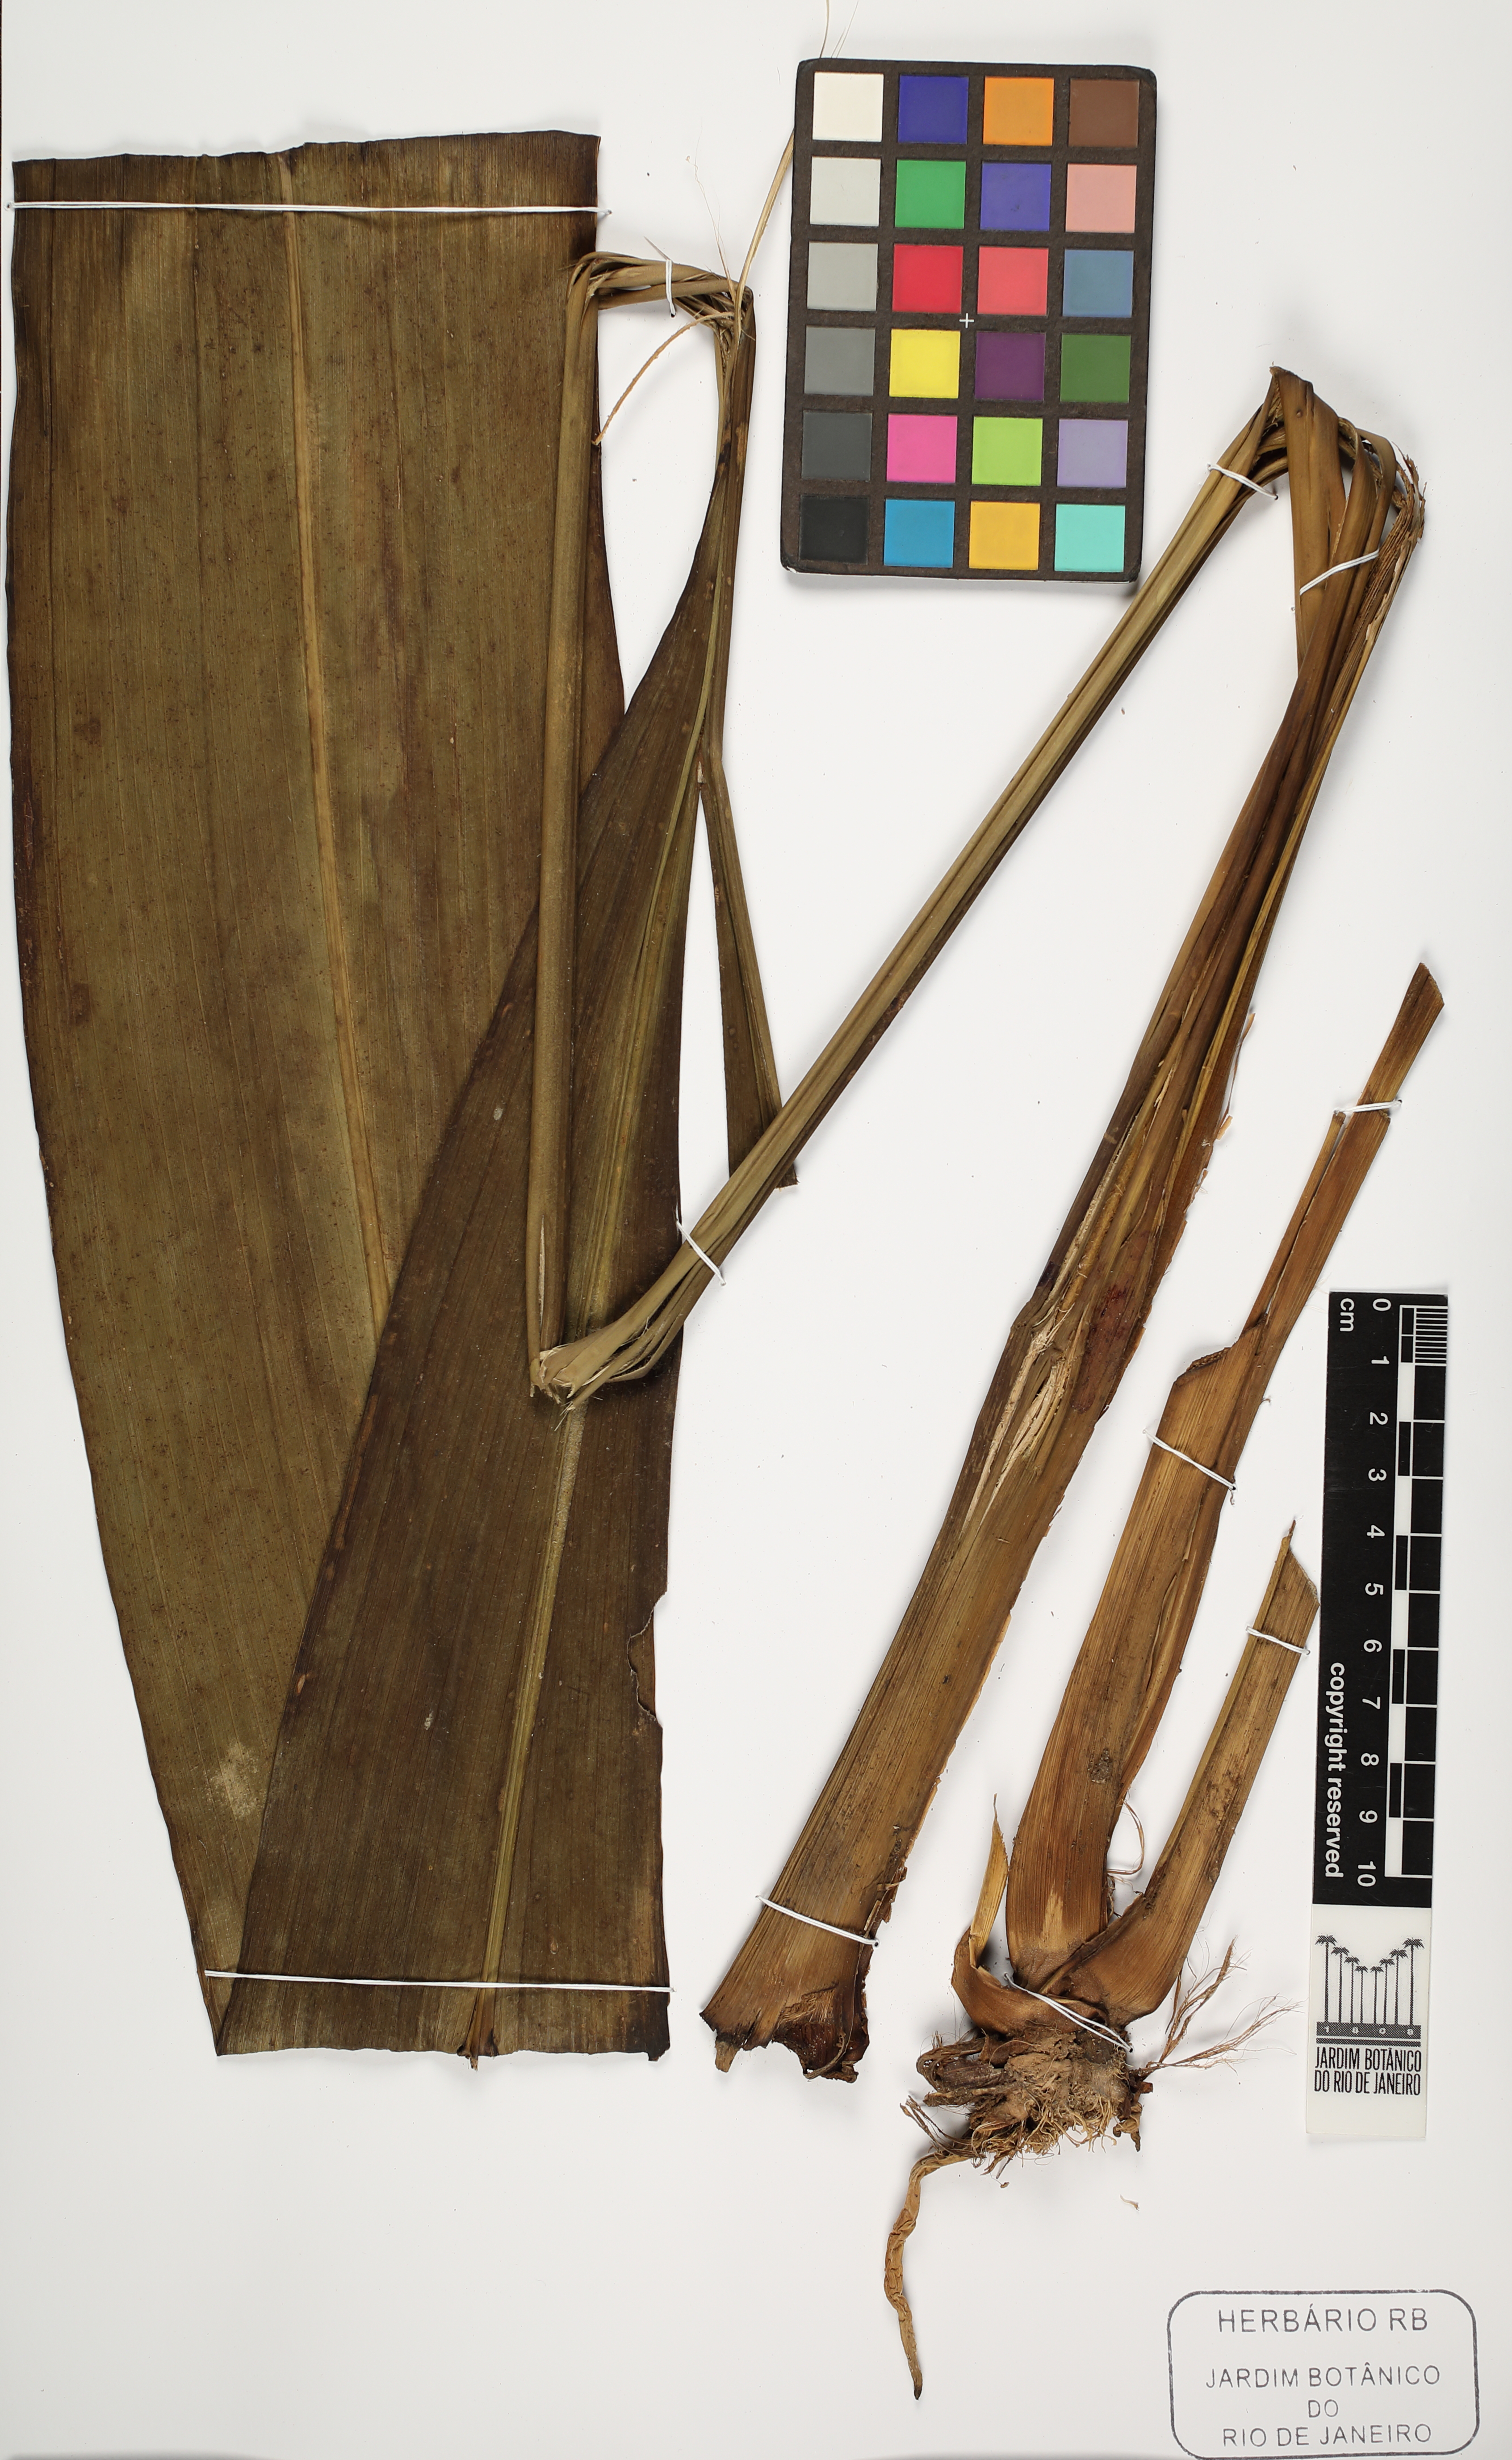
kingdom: Plantae
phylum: Tracheophyta
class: Liliopsida
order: Pandanales
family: Cyclanthaceae
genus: Cyclanthus
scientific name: Cyclanthus bipartitus
